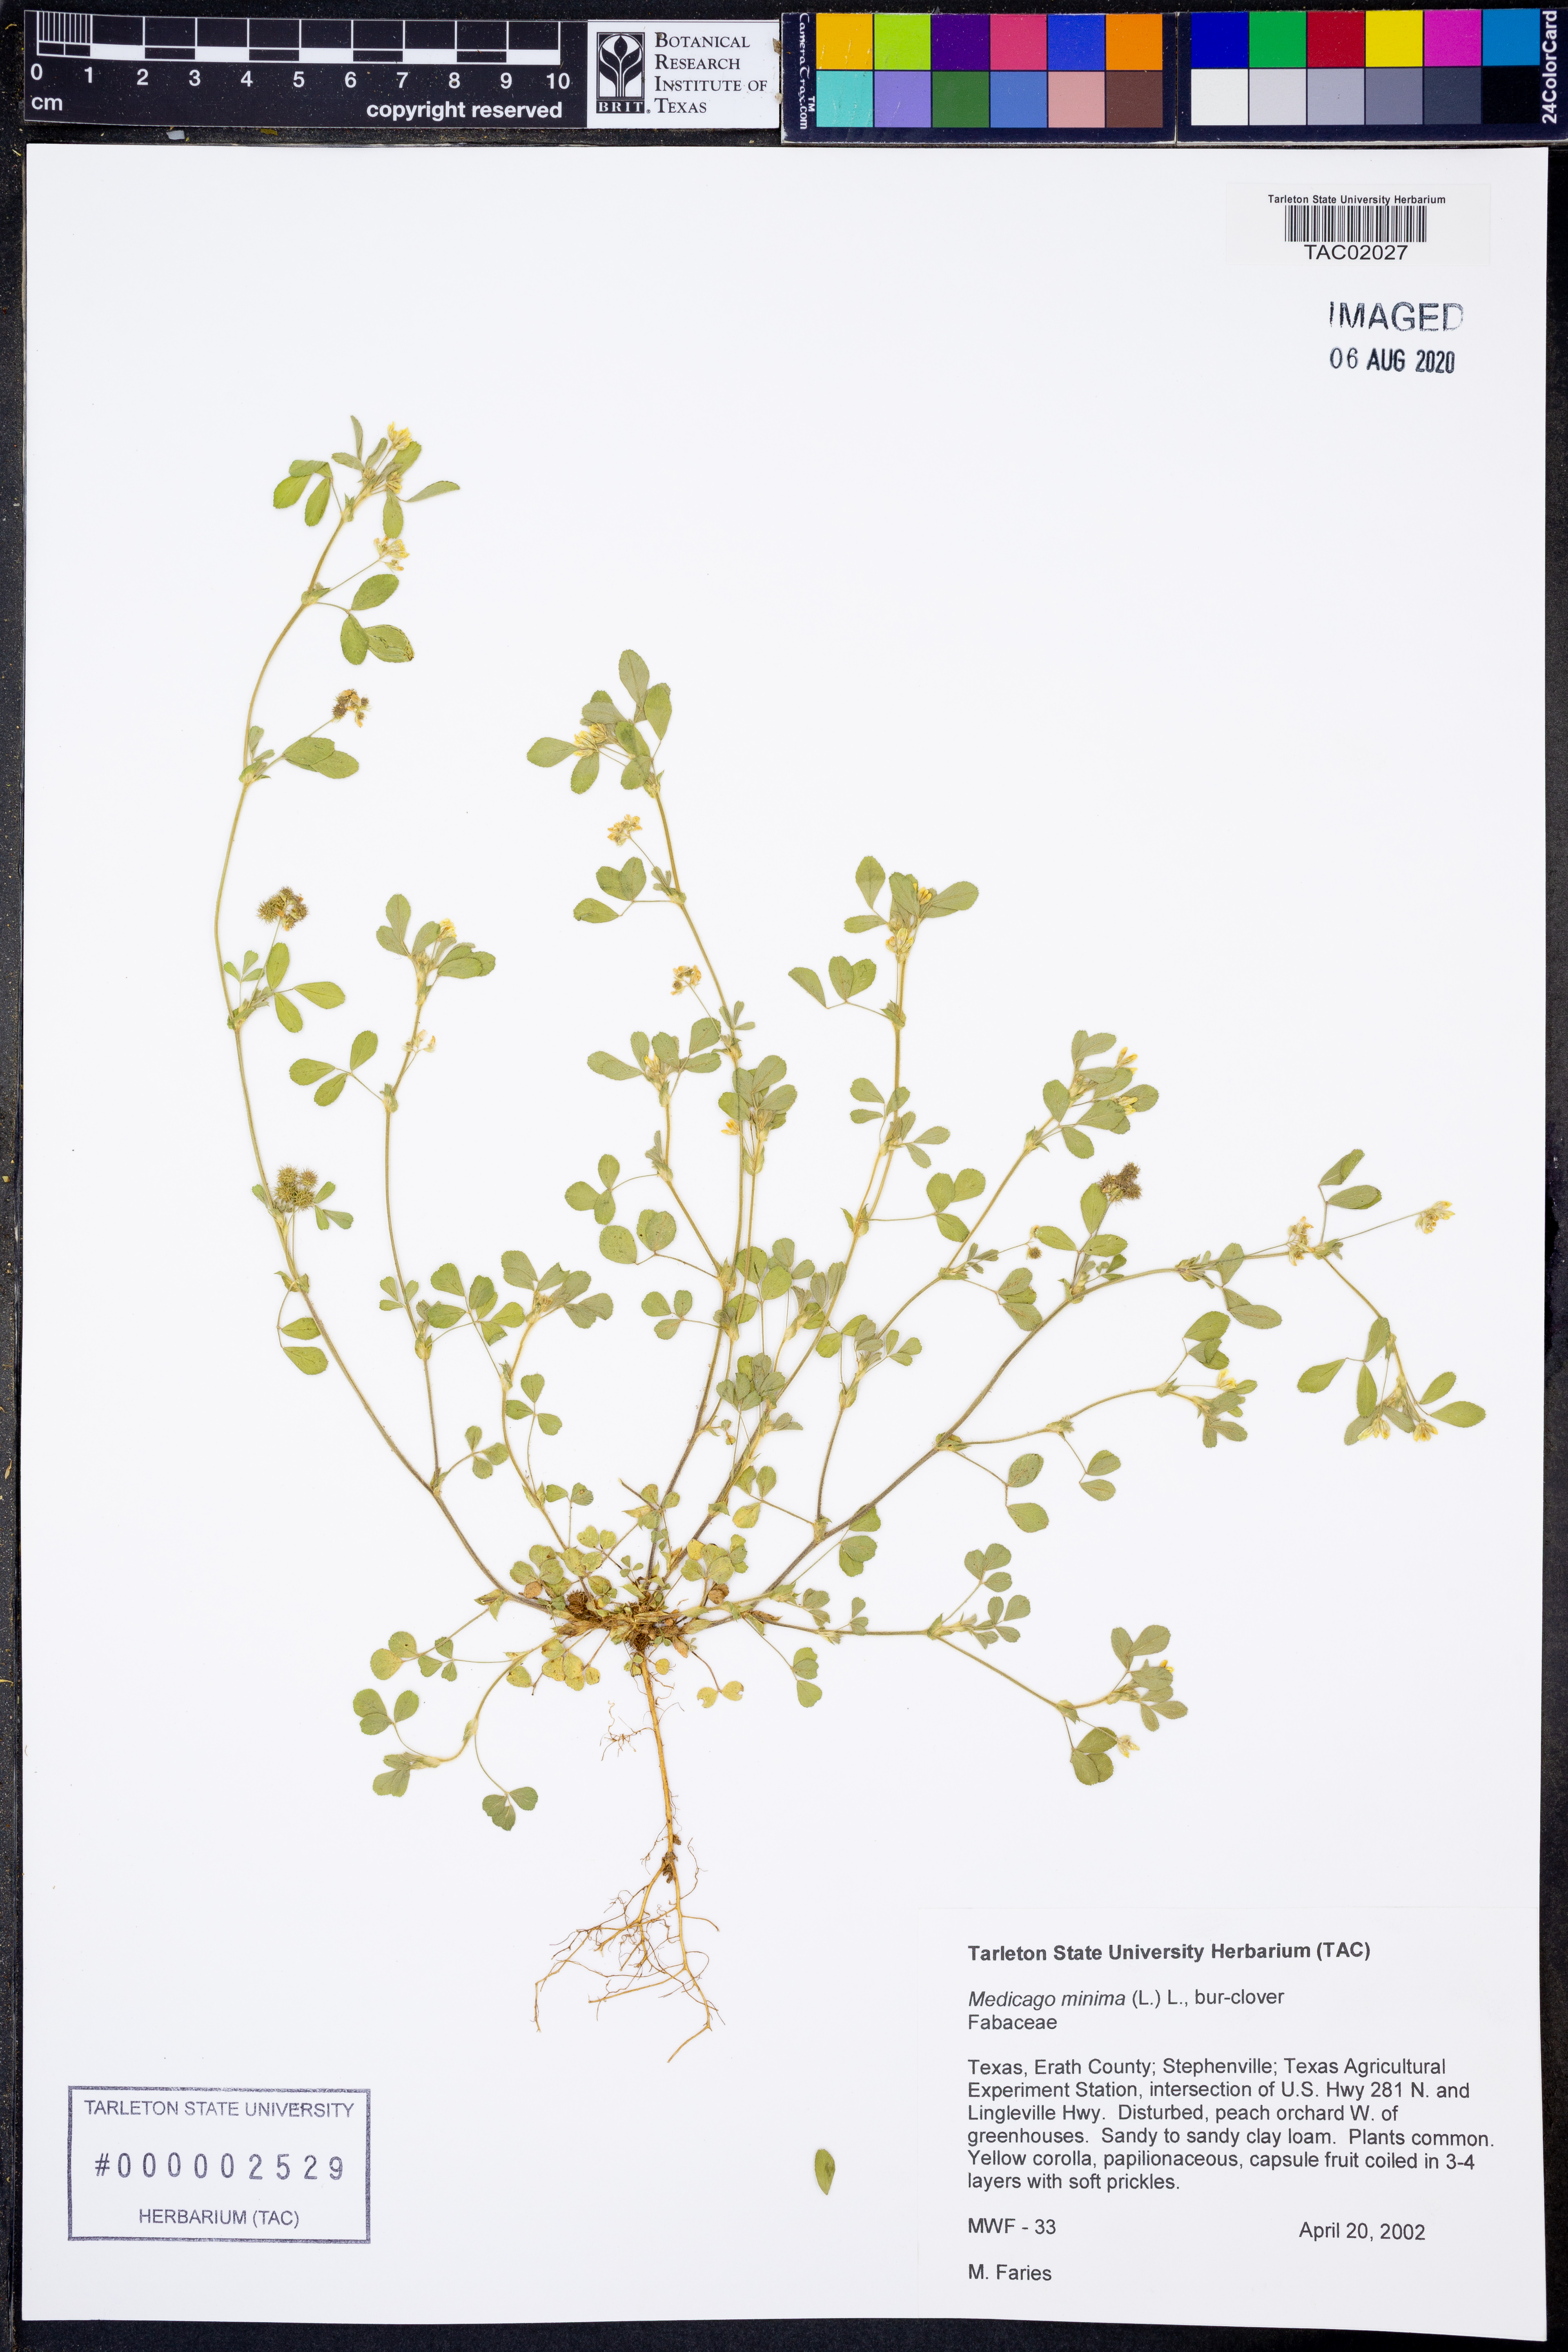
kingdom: Plantae
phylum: Tracheophyta
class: Magnoliopsida
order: Fabales
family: Fabaceae
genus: Medicago
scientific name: Medicago minima
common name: Little bur-clover
